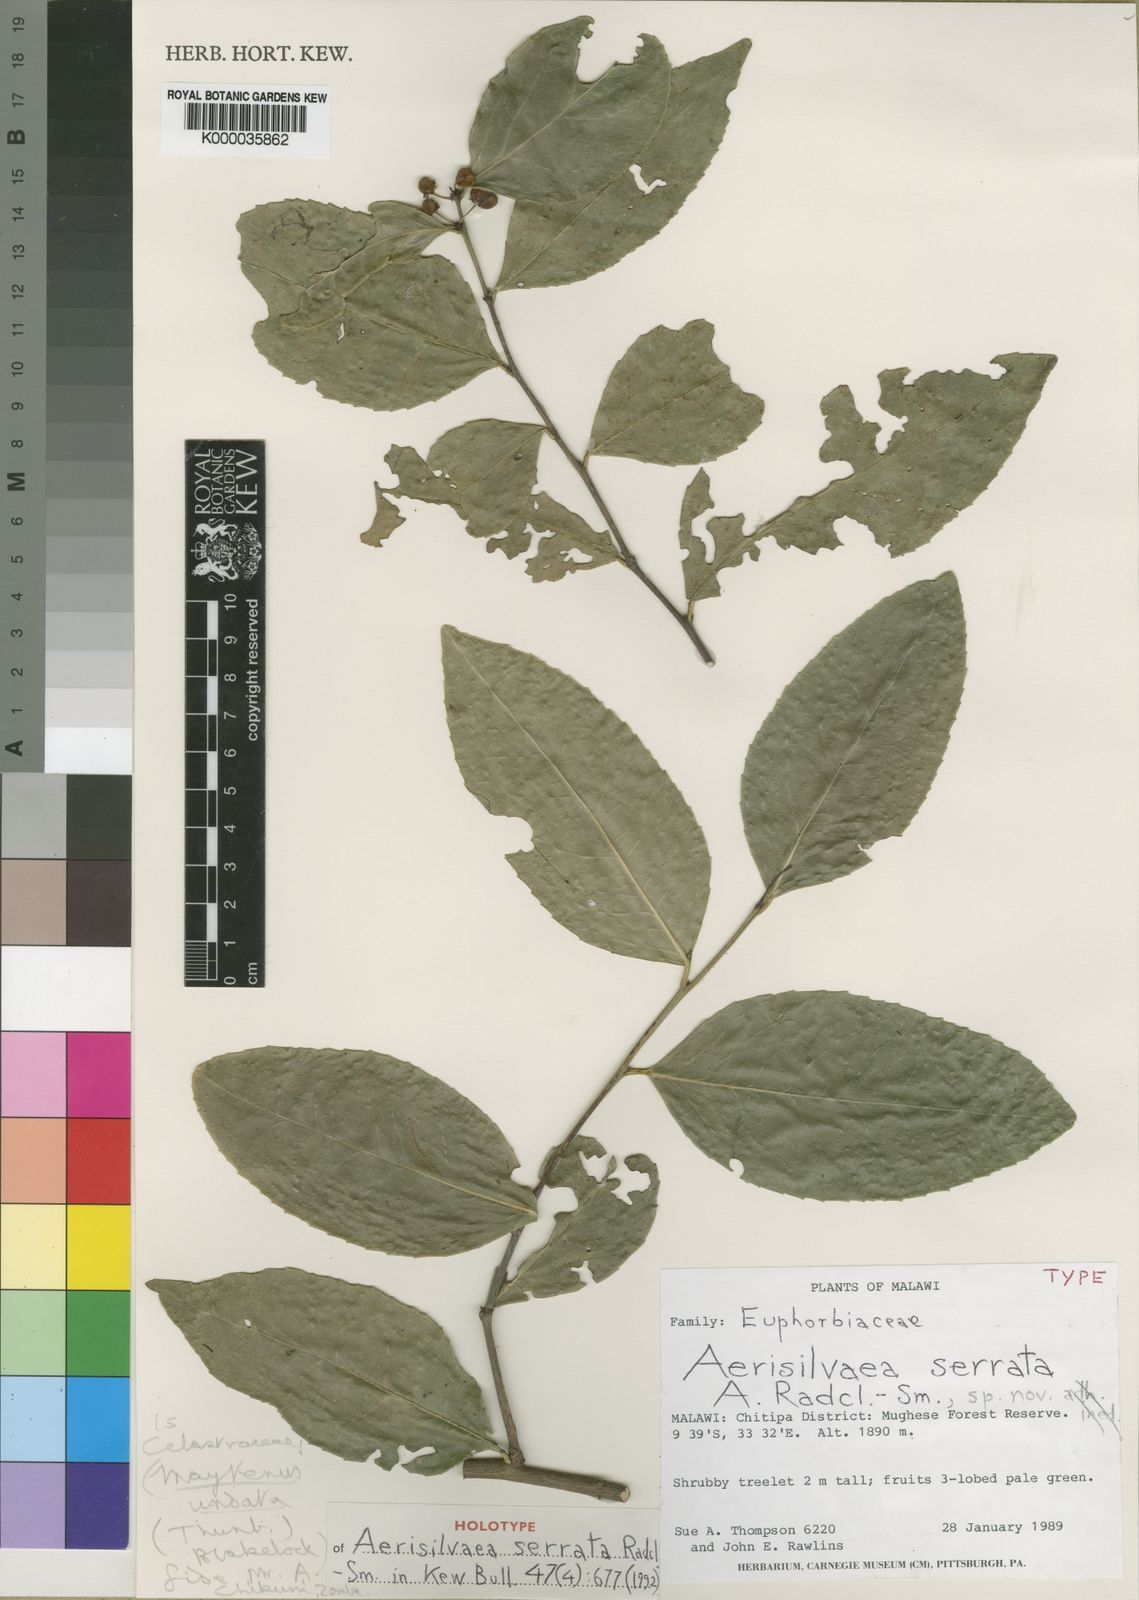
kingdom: Plantae
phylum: Tracheophyta
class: Magnoliopsida
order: Celastrales
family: Celastraceae
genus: Gymnosporia
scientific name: Gymnosporia undata
